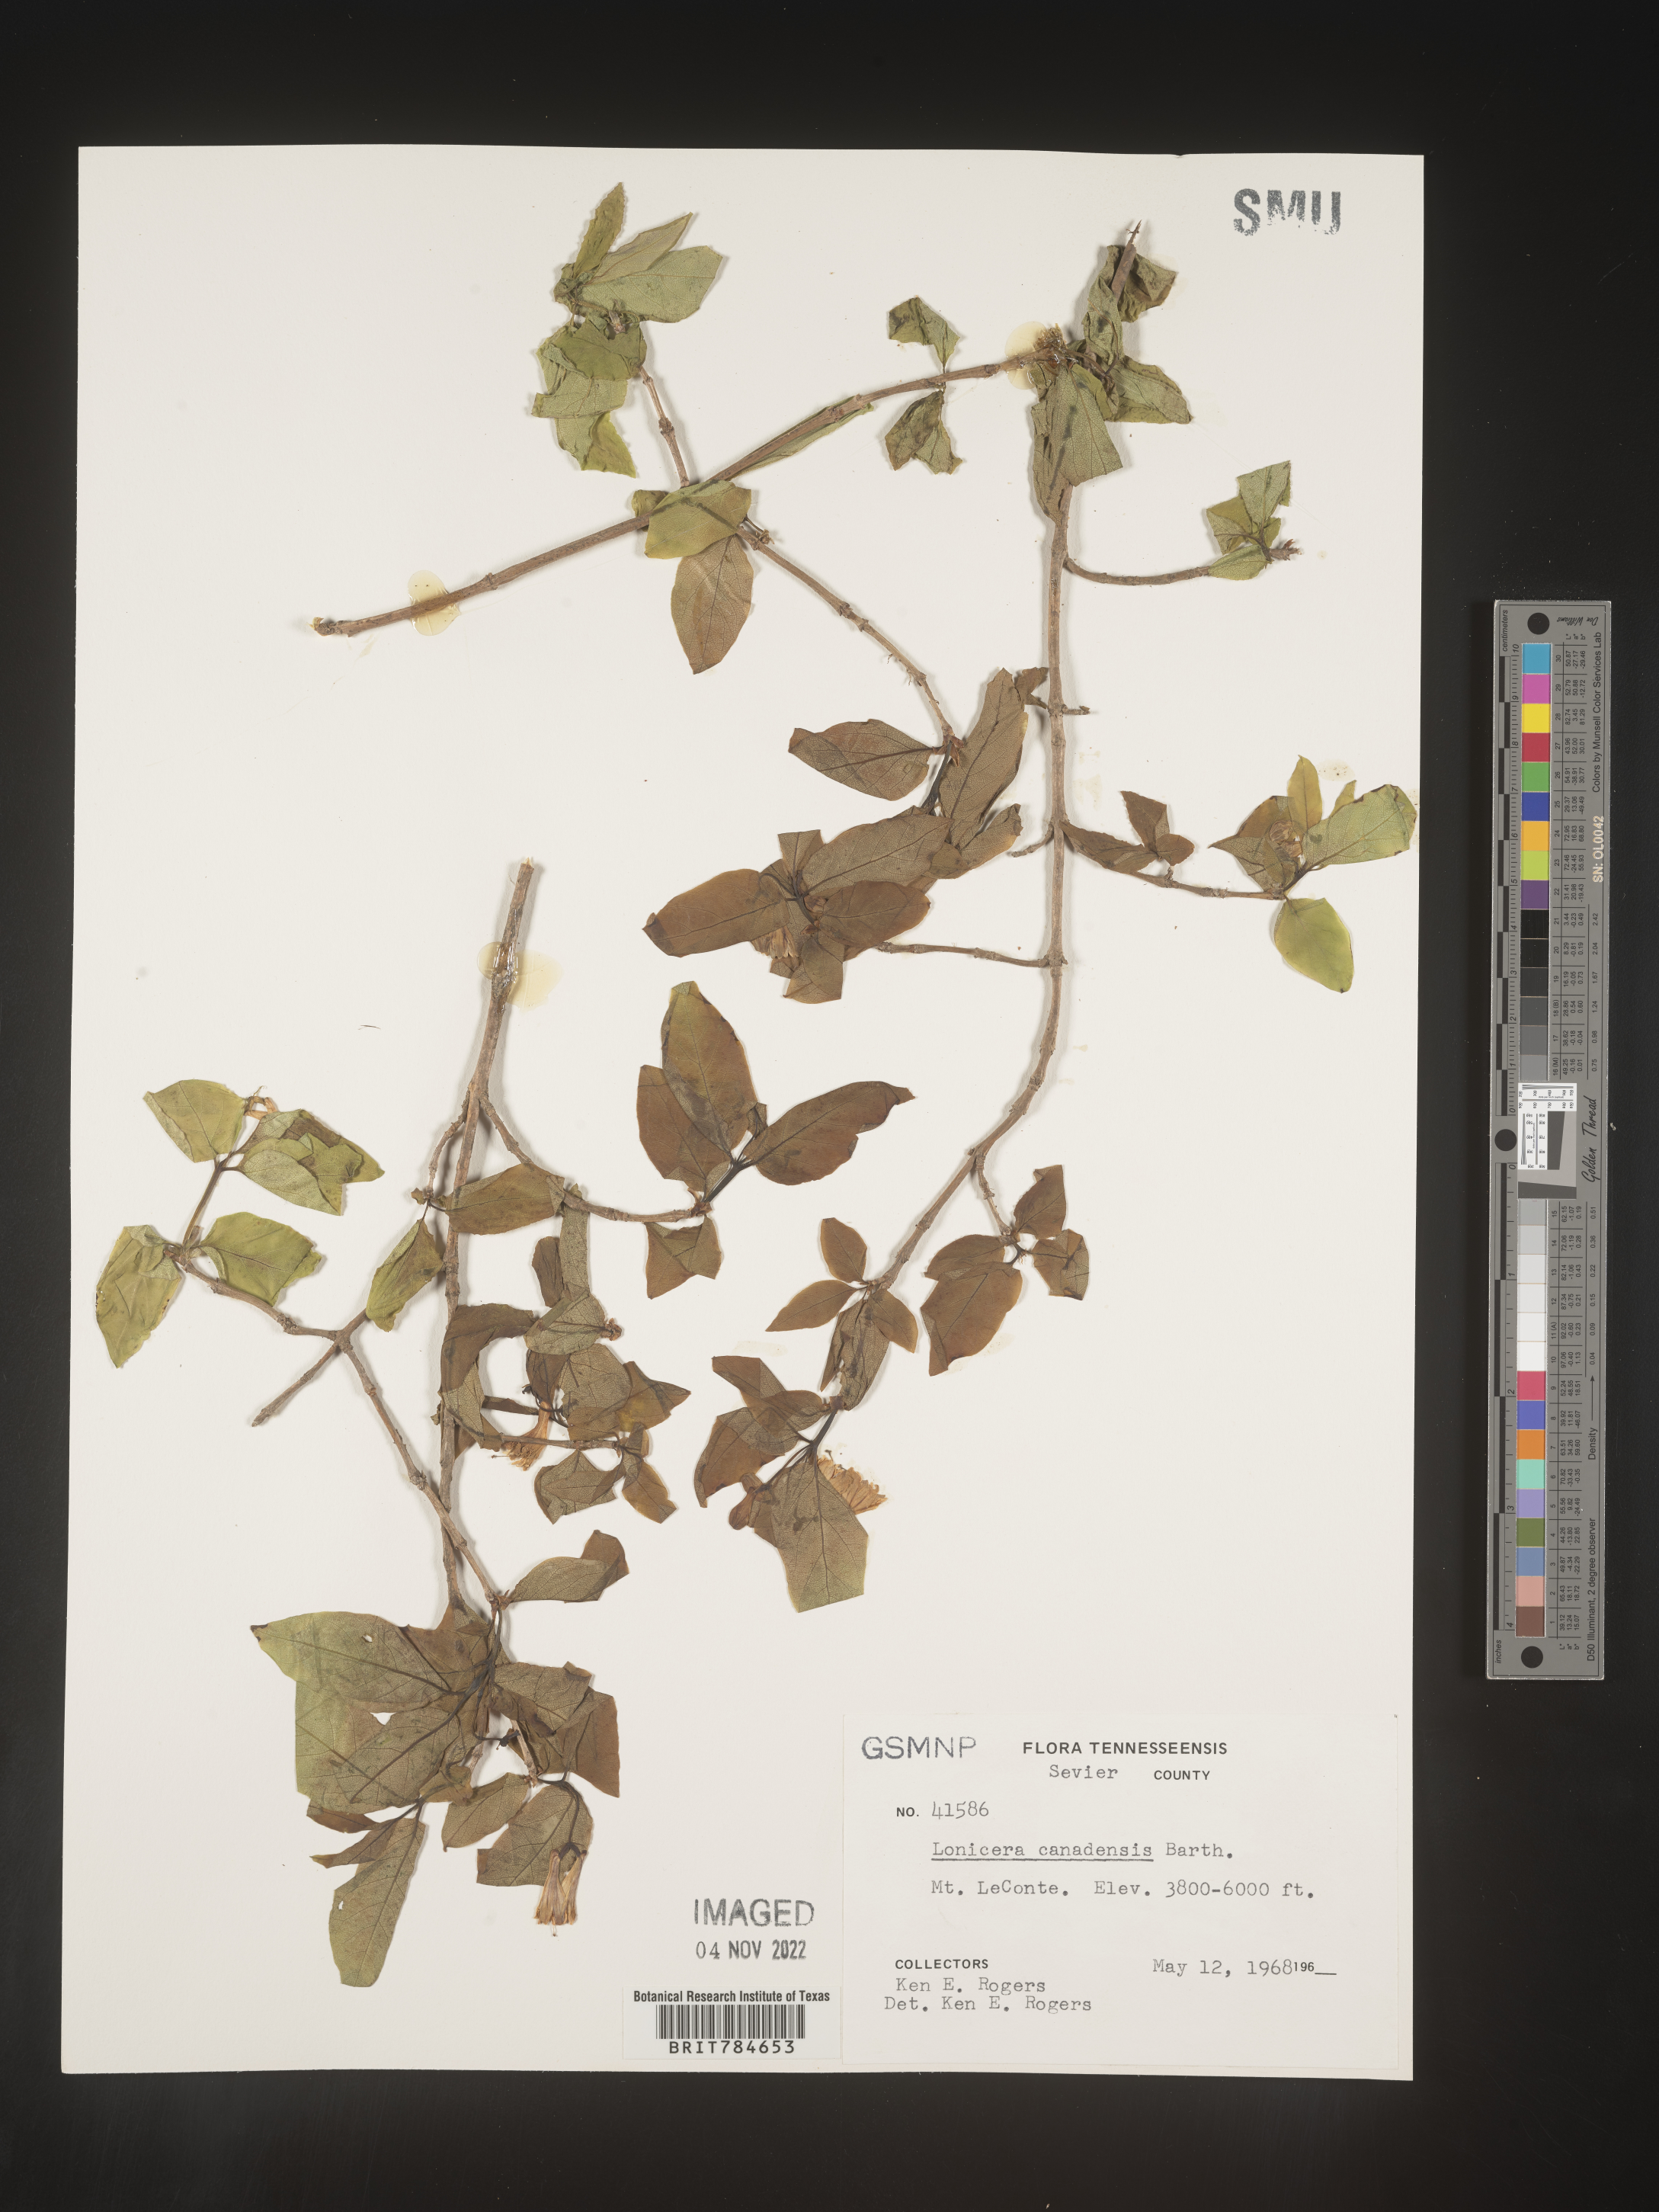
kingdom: Plantae
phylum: Tracheophyta
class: Magnoliopsida
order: Dipsacales
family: Caprifoliaceae
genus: Lonicera
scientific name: Lonicera
